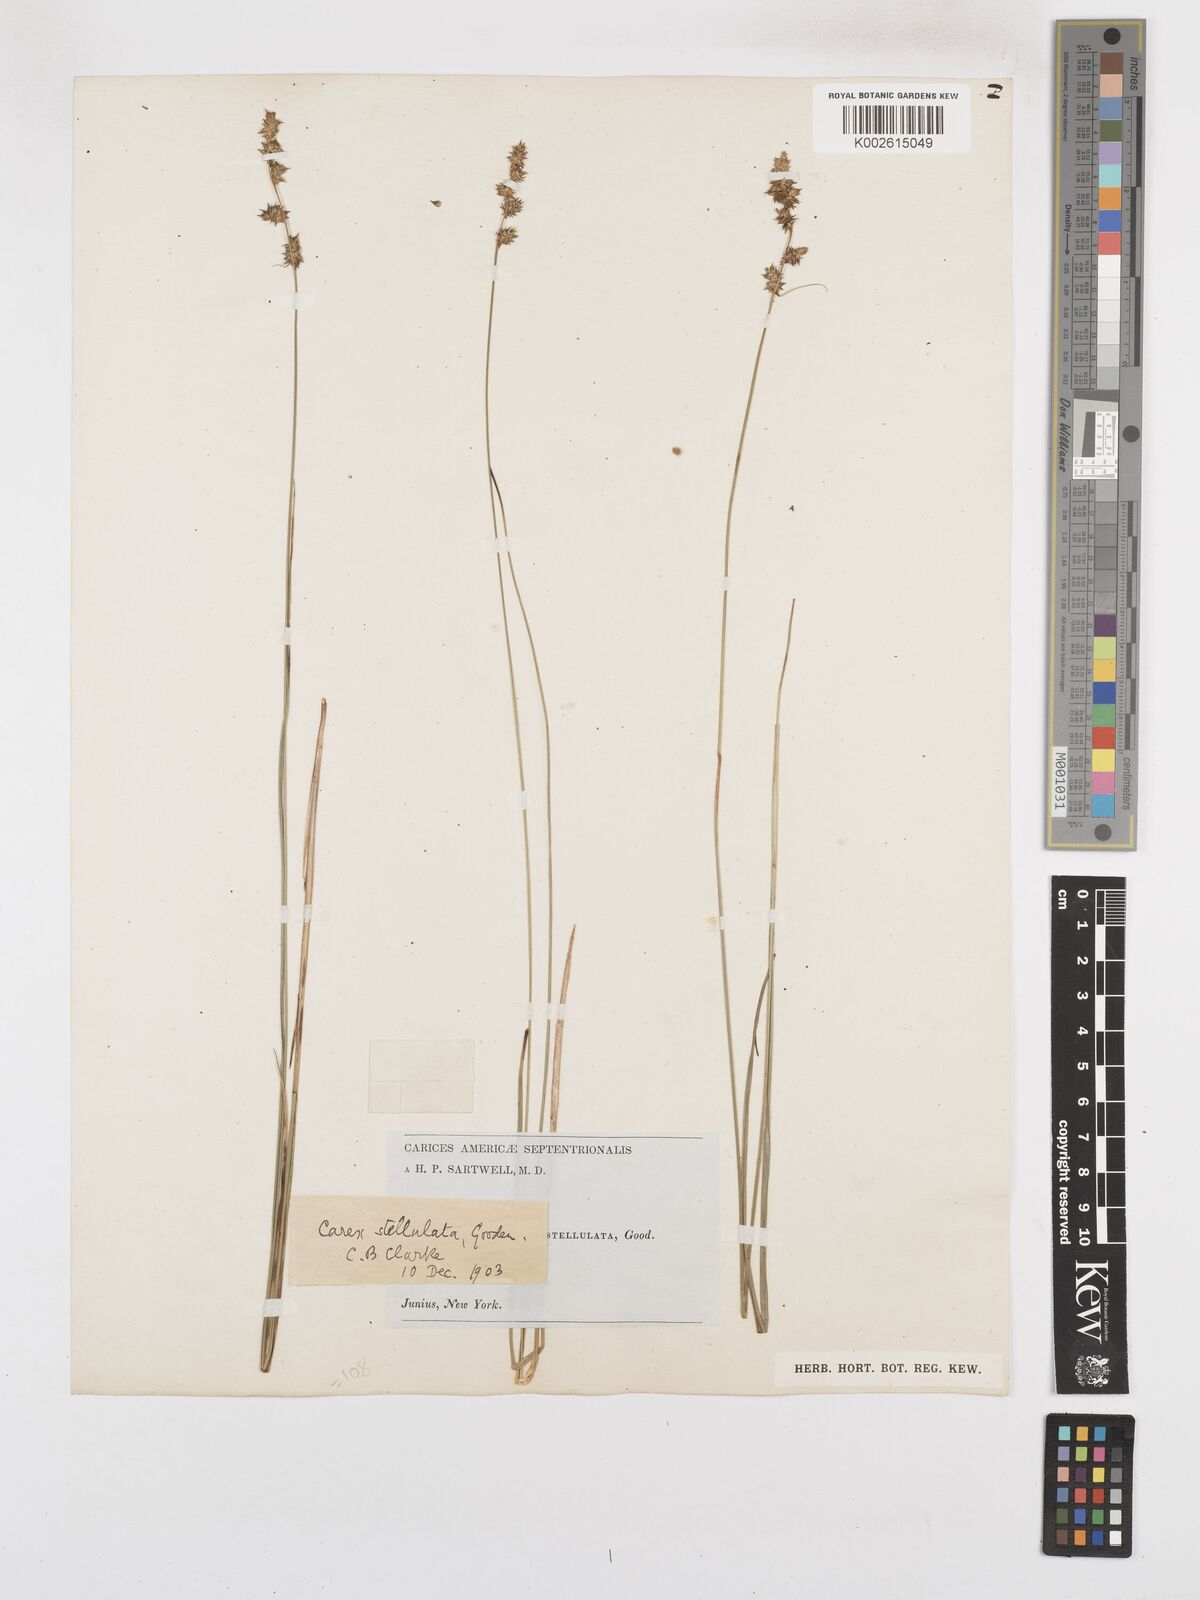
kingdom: Plantae
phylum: Tracheophyta
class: Liliopsida
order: Poales
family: Cyperaceae
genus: Carex
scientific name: Carex atlantica
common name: Atlantic sedge
